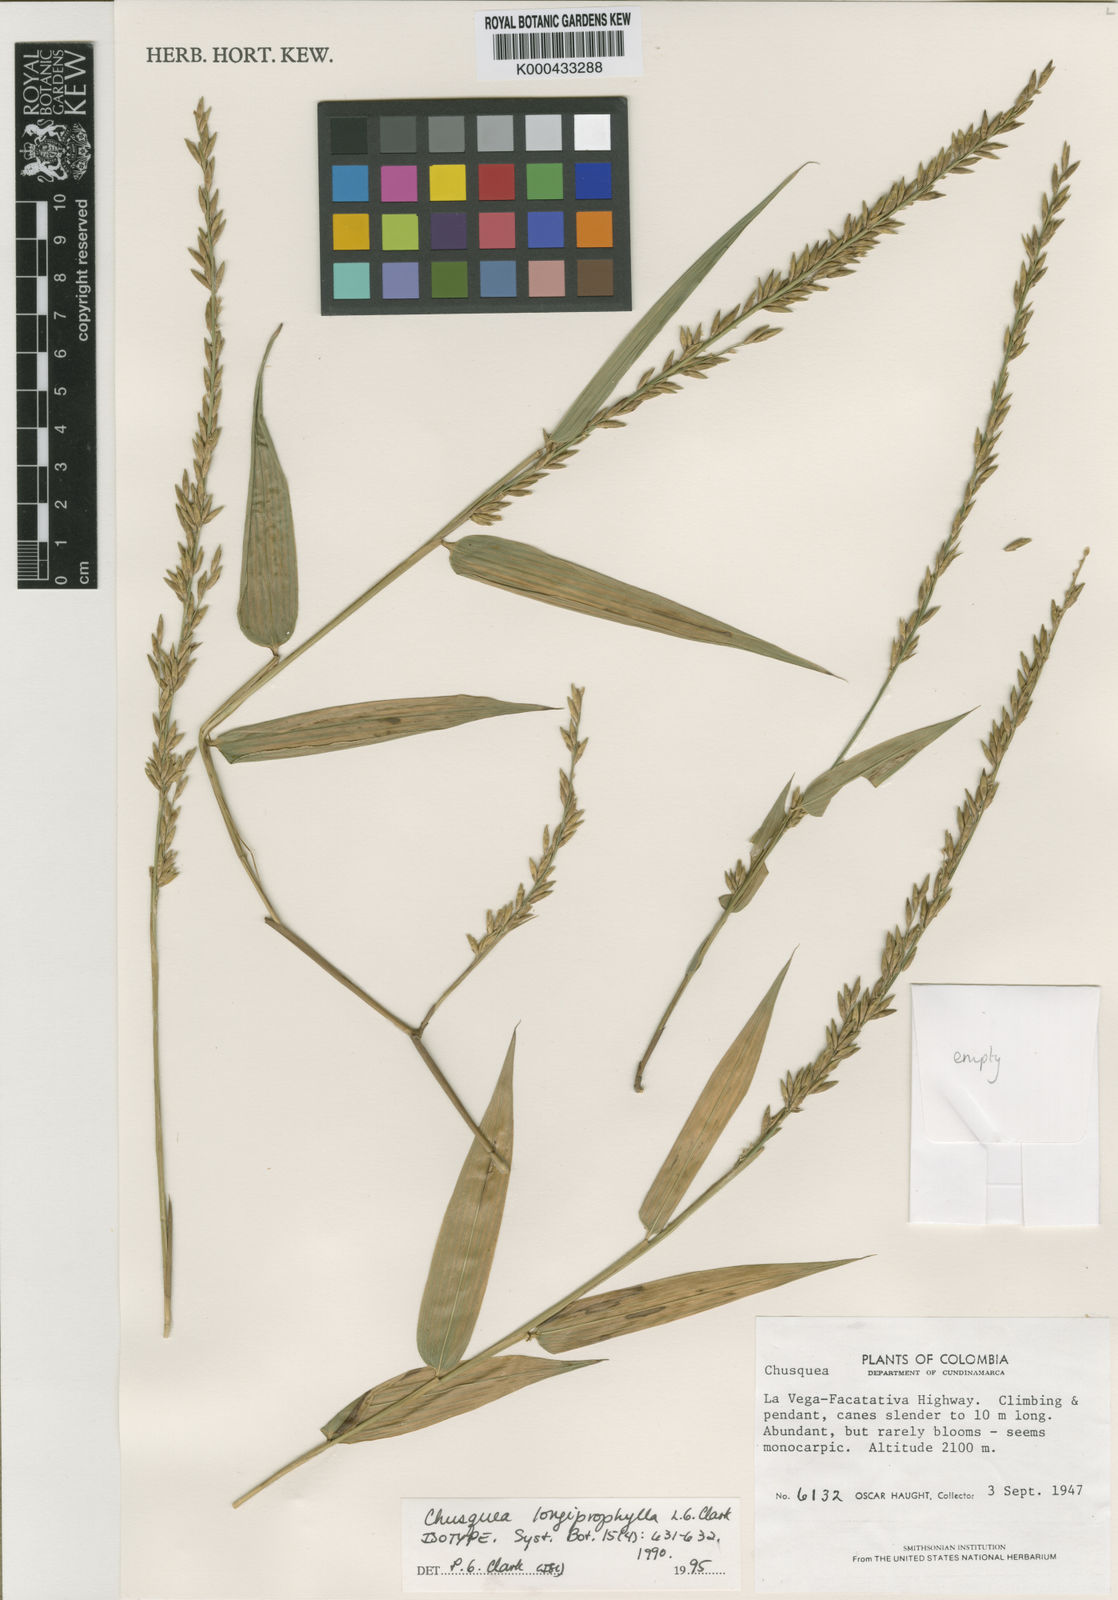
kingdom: Plantae
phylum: Tracheophyta
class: Liliopsida
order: Poales
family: Poaceae
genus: Chusquea
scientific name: Chusquea longiprophylla
